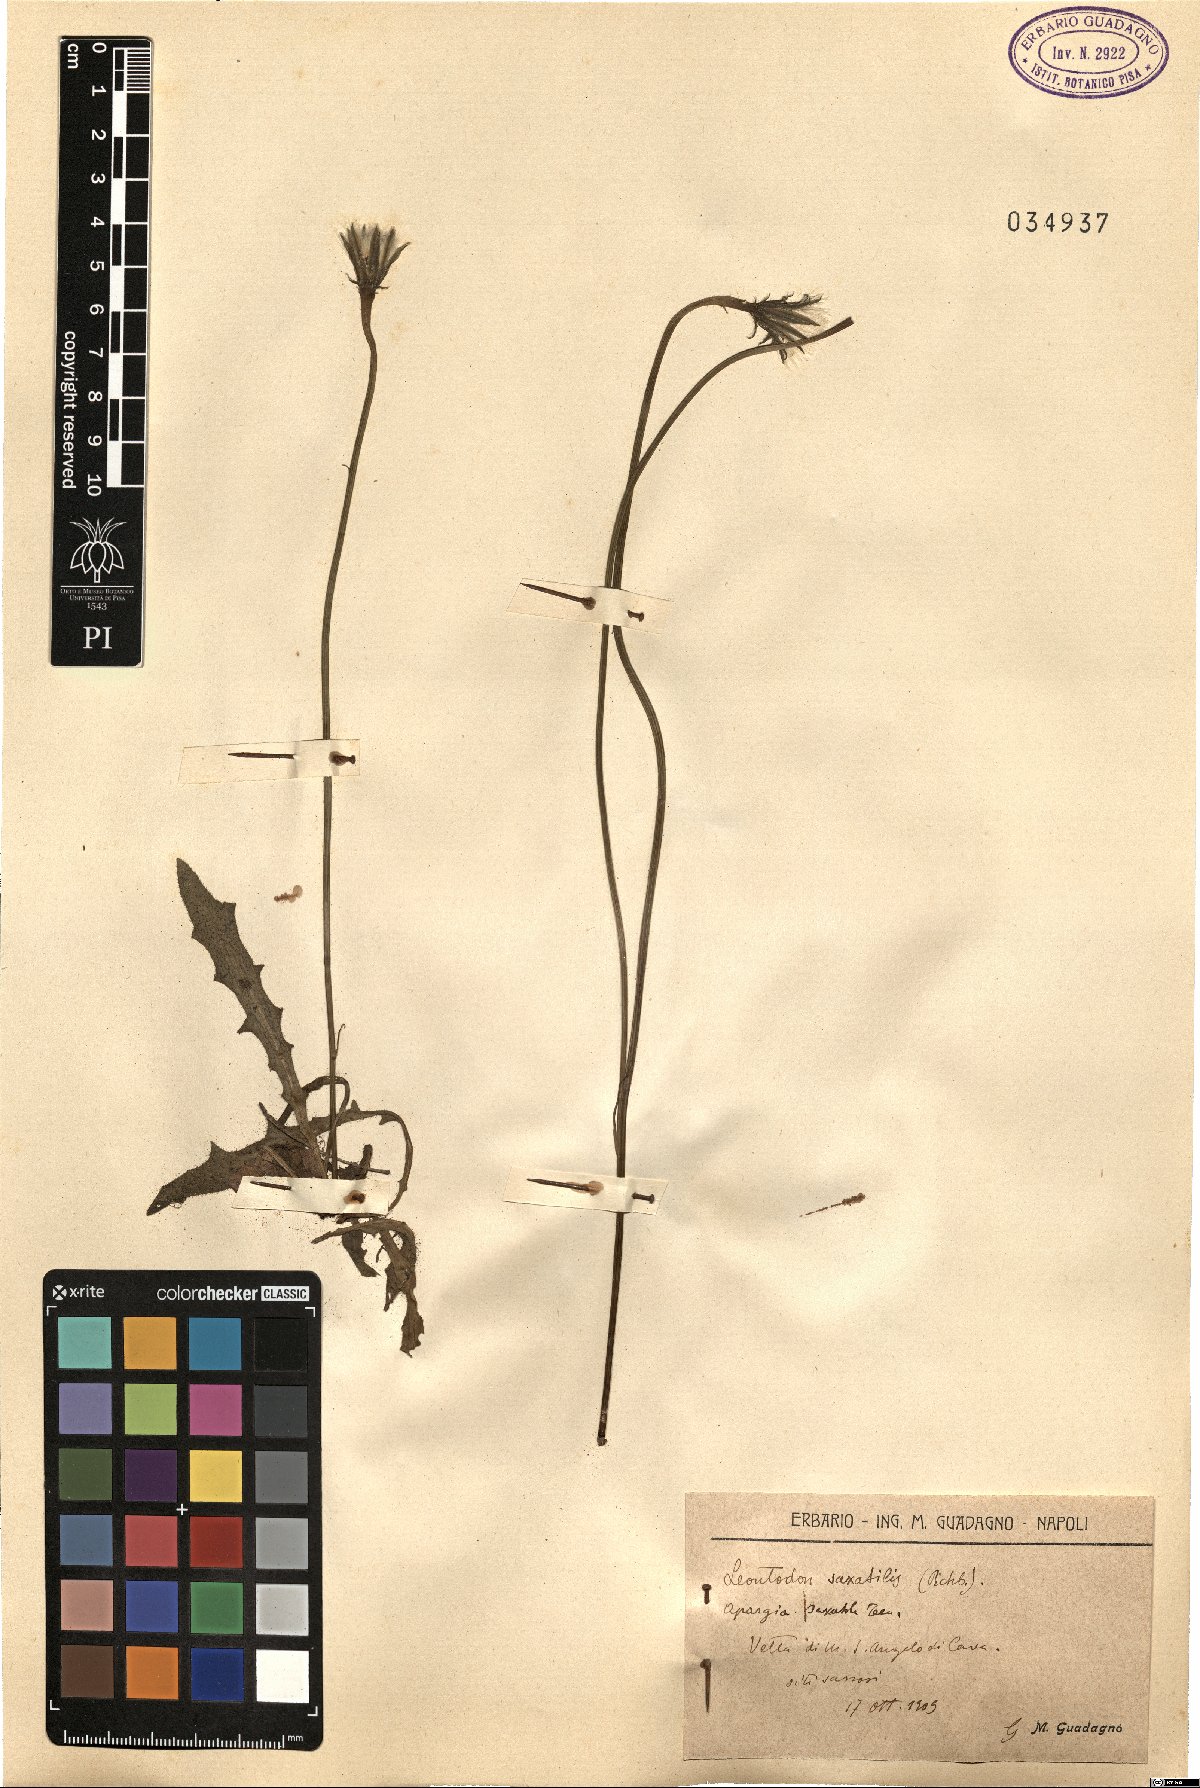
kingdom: Plantae
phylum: Tracheophyta
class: Magnoliopsida
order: Asterales
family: Asteraceae
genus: Thrincia
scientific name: Thrincia saxatilis
